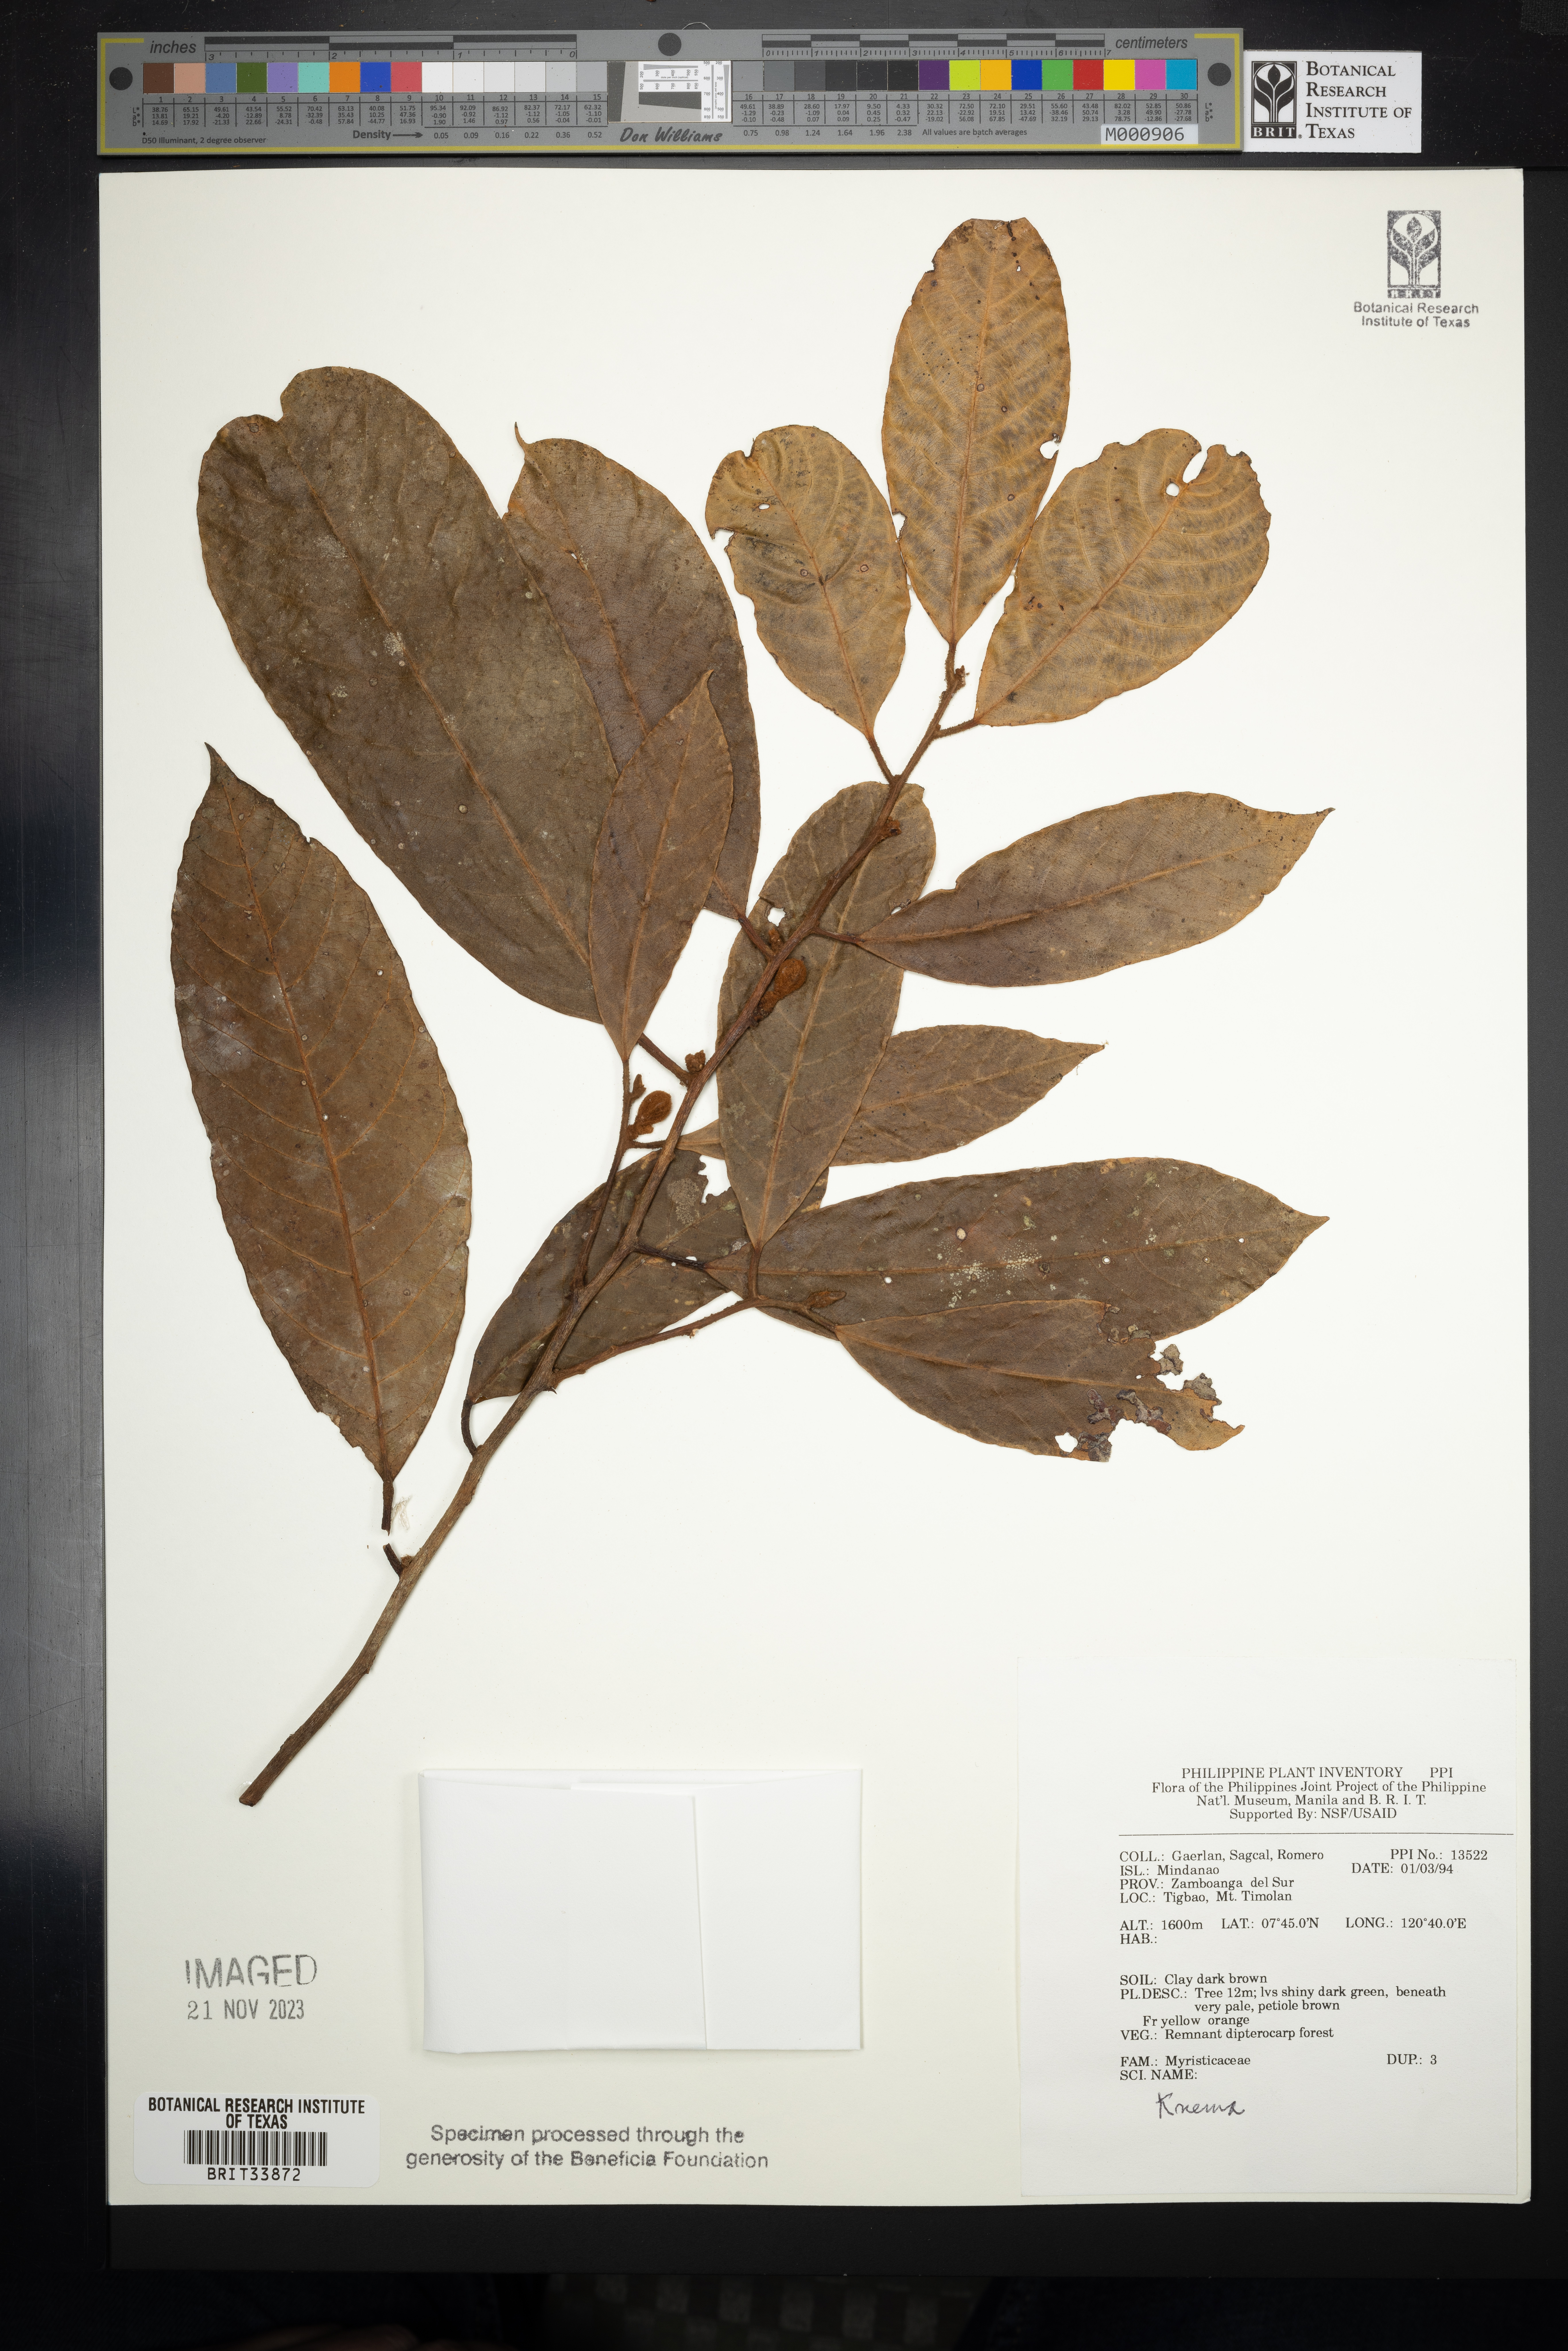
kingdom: Plantae
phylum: Tracheophyta
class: Magnoliopsida
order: Magnoliales
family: Myristicaceae
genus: Knema
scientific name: Knema
